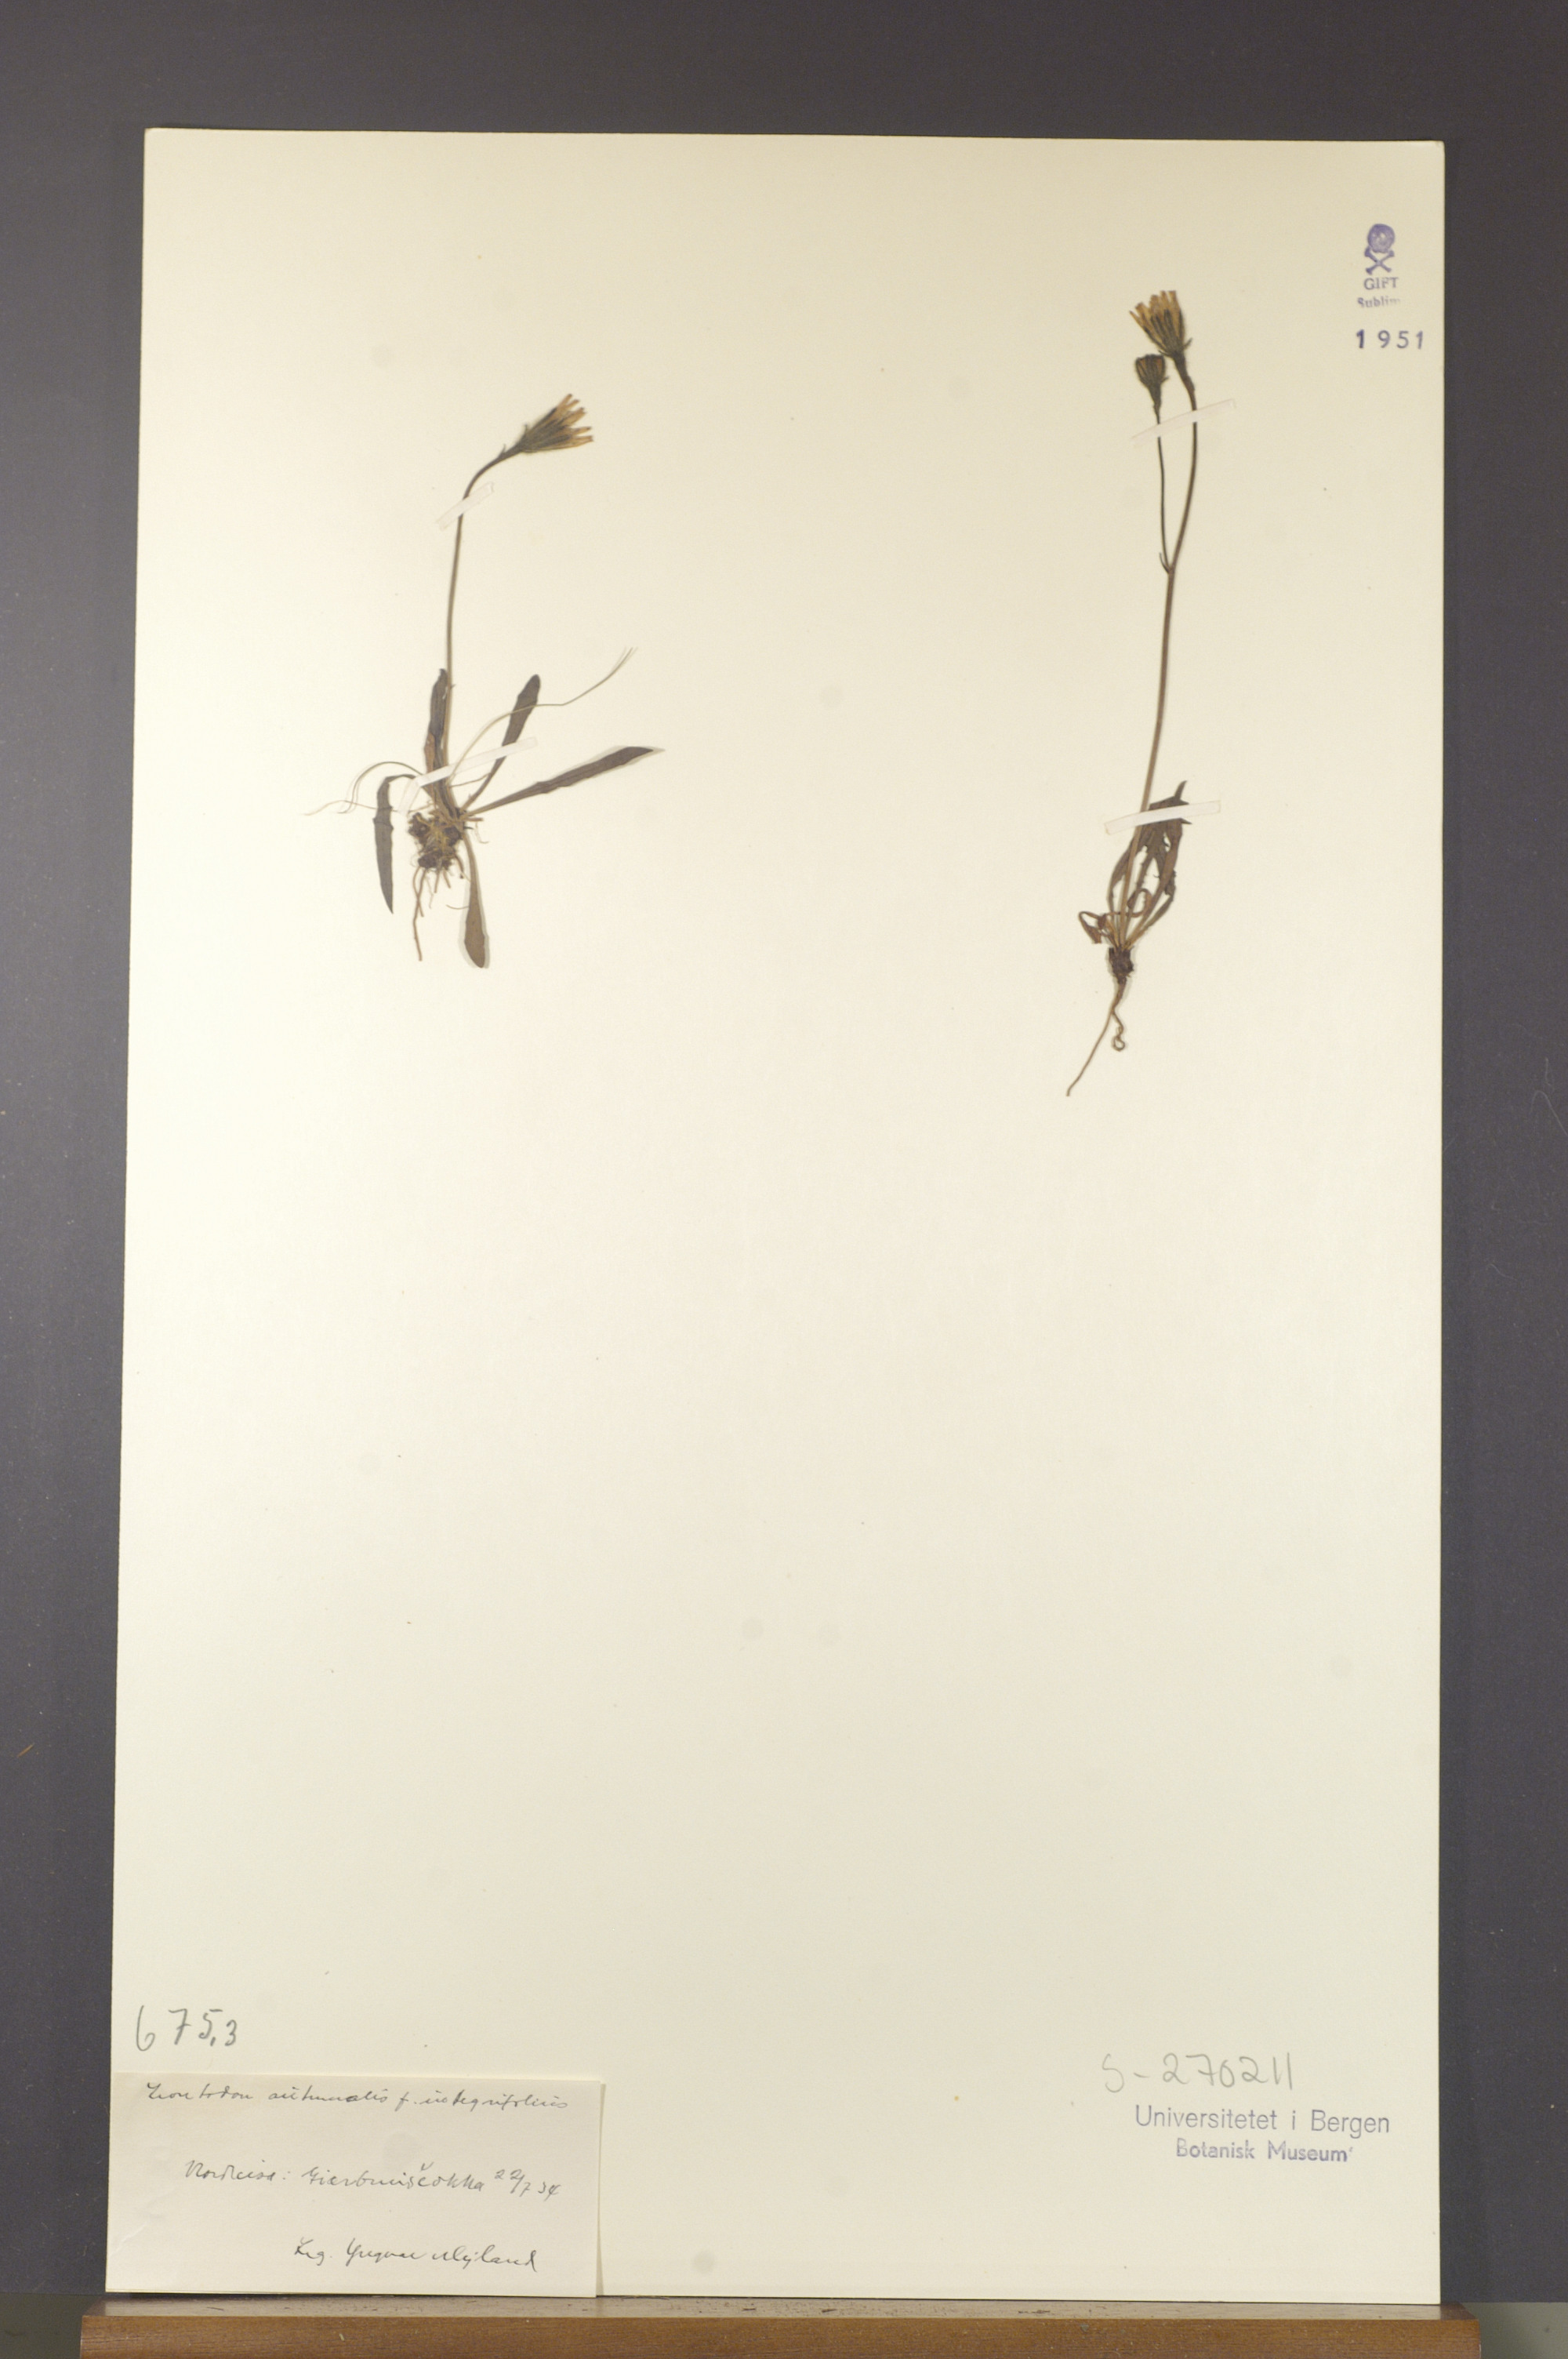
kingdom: Plantae
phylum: Tracheophyta
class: Magnoliopsida
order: Asterales
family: Asteraceae
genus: Scorzoneroides
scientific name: Scorzoneroides autumnalis
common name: Autumn hawkbit
